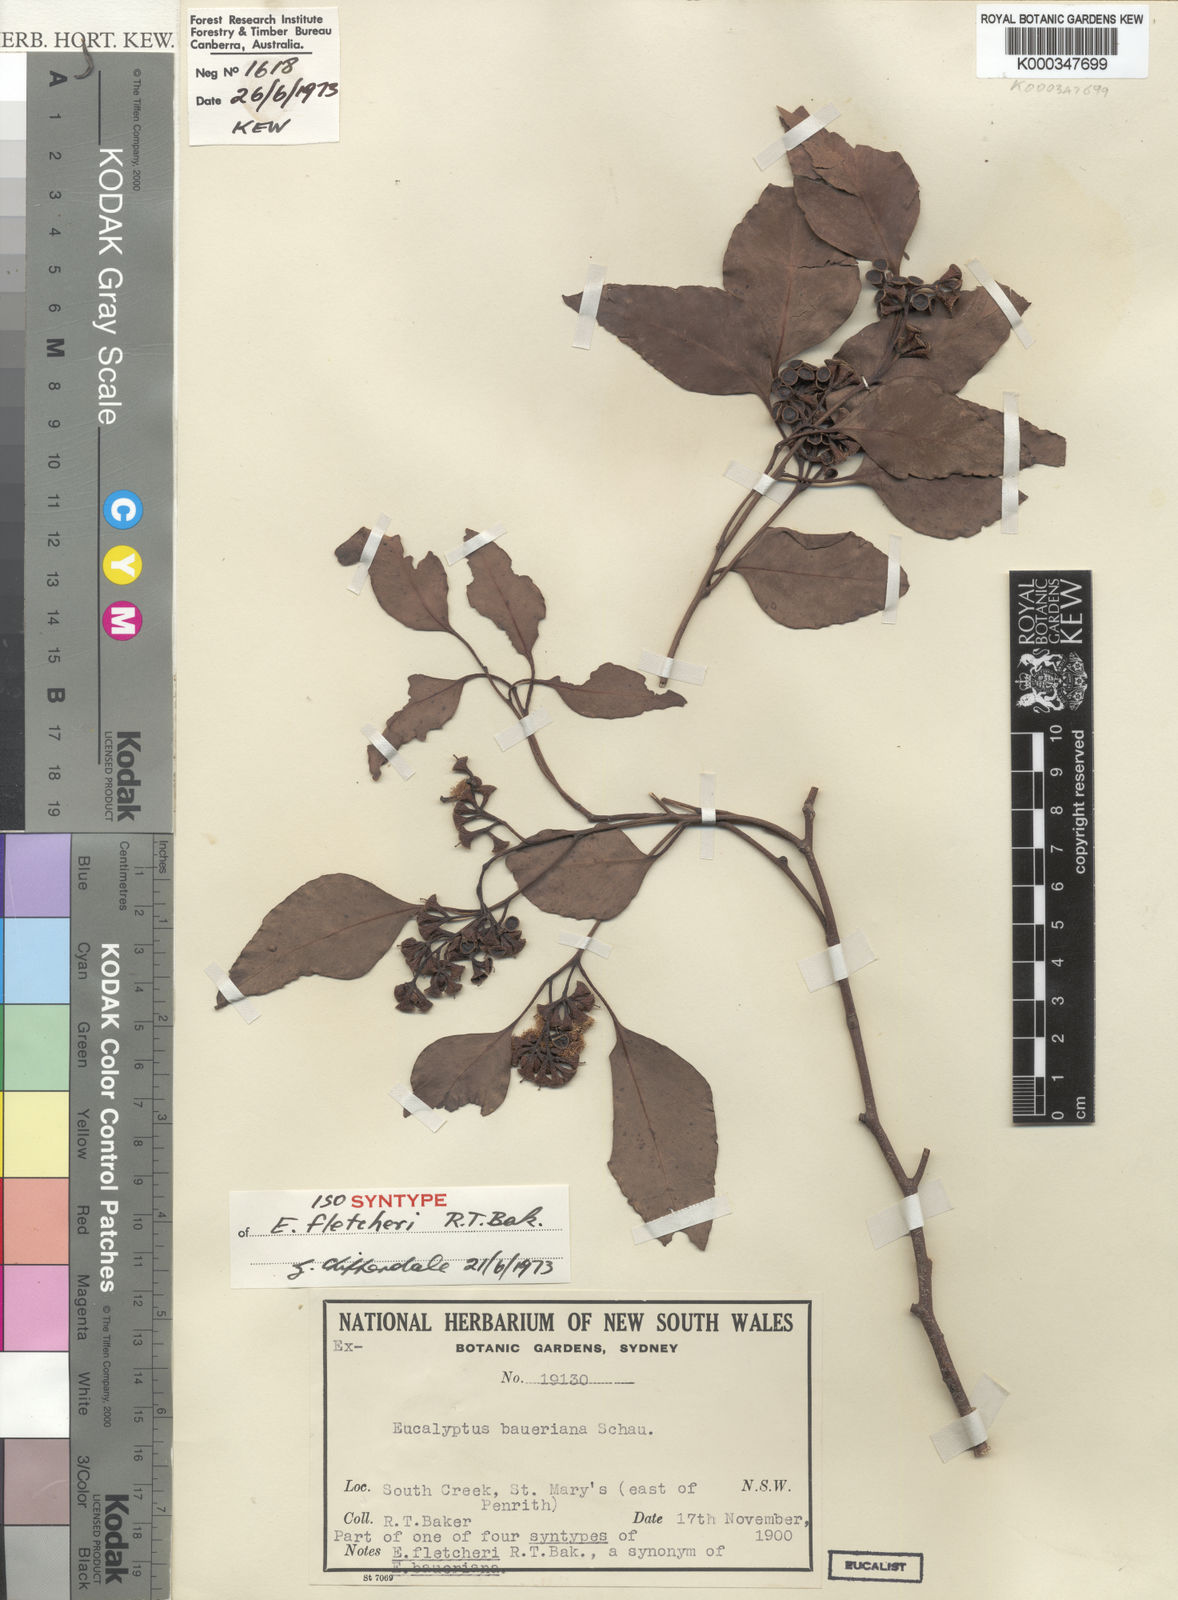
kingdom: Plantae
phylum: Tracheophyta
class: Magnoliopsida
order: Myrtales
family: Myrtaceae
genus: Eucalyptus
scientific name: Eucalyptus baueriana
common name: Round-leaf-box
